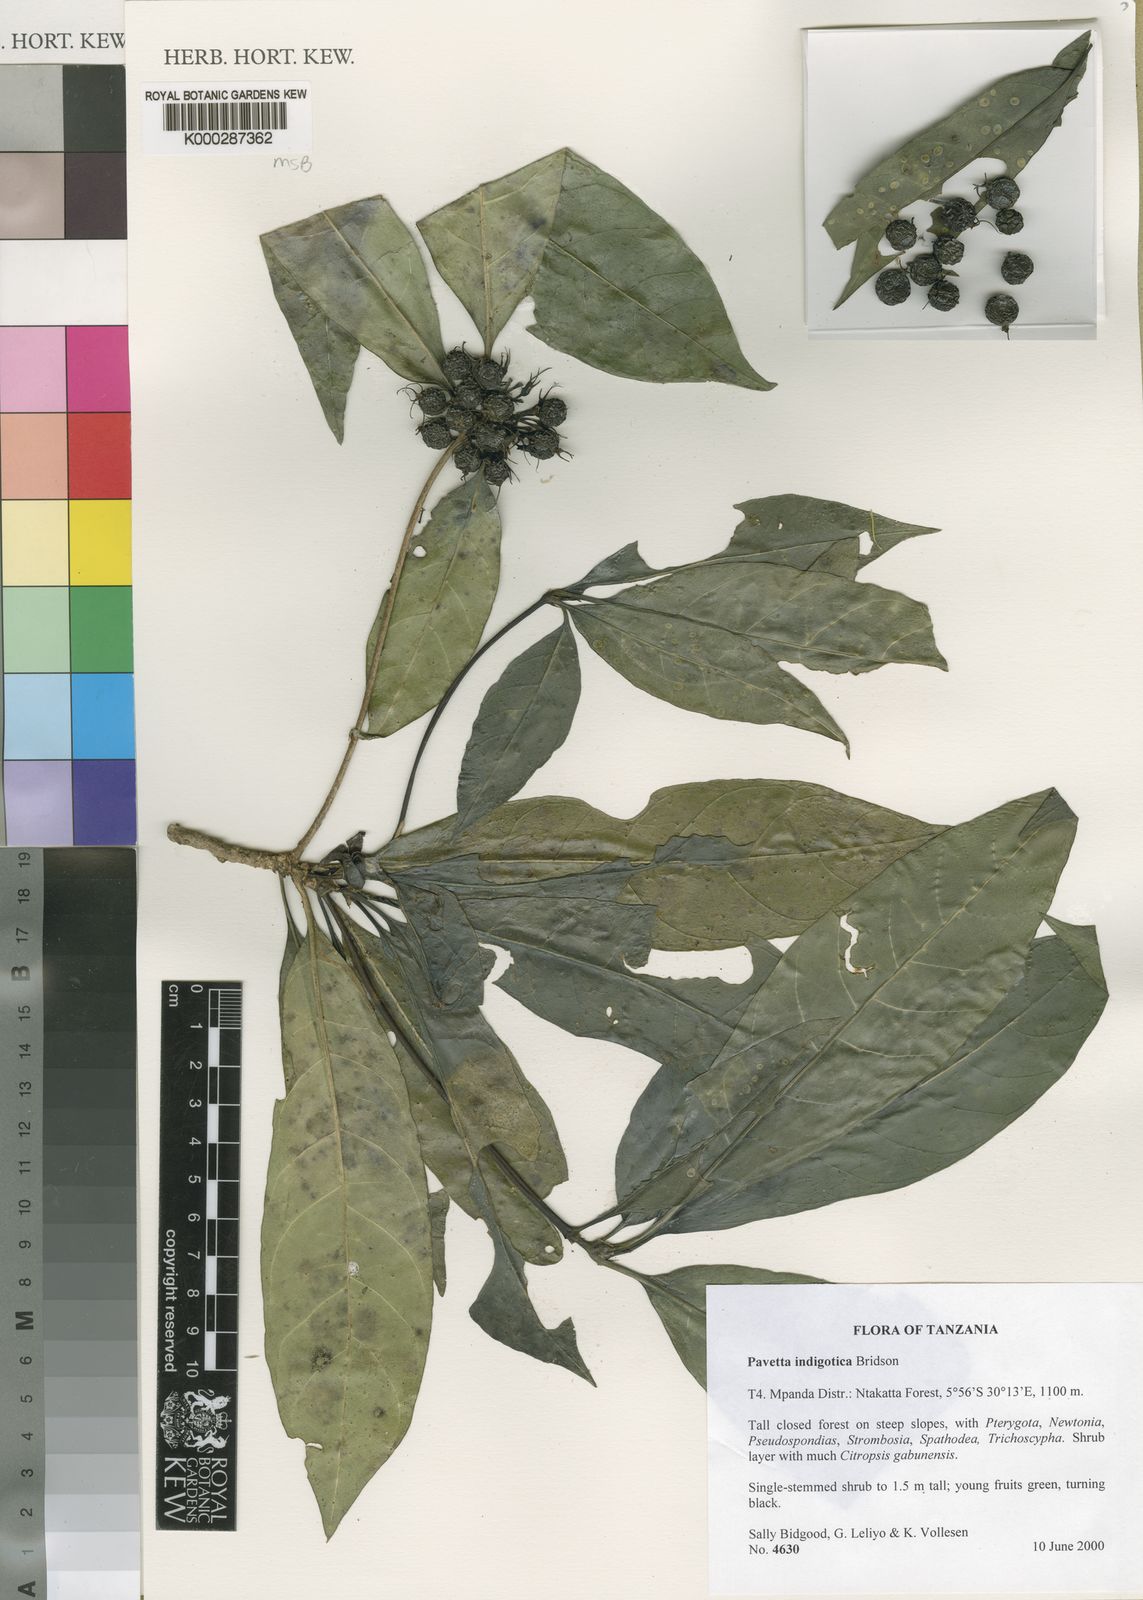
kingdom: Plantae
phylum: Tracheophyta
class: Magnoliopsida
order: Gentianales
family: Rubiaceae
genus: Pavetta
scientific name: Pavetta indigotica
